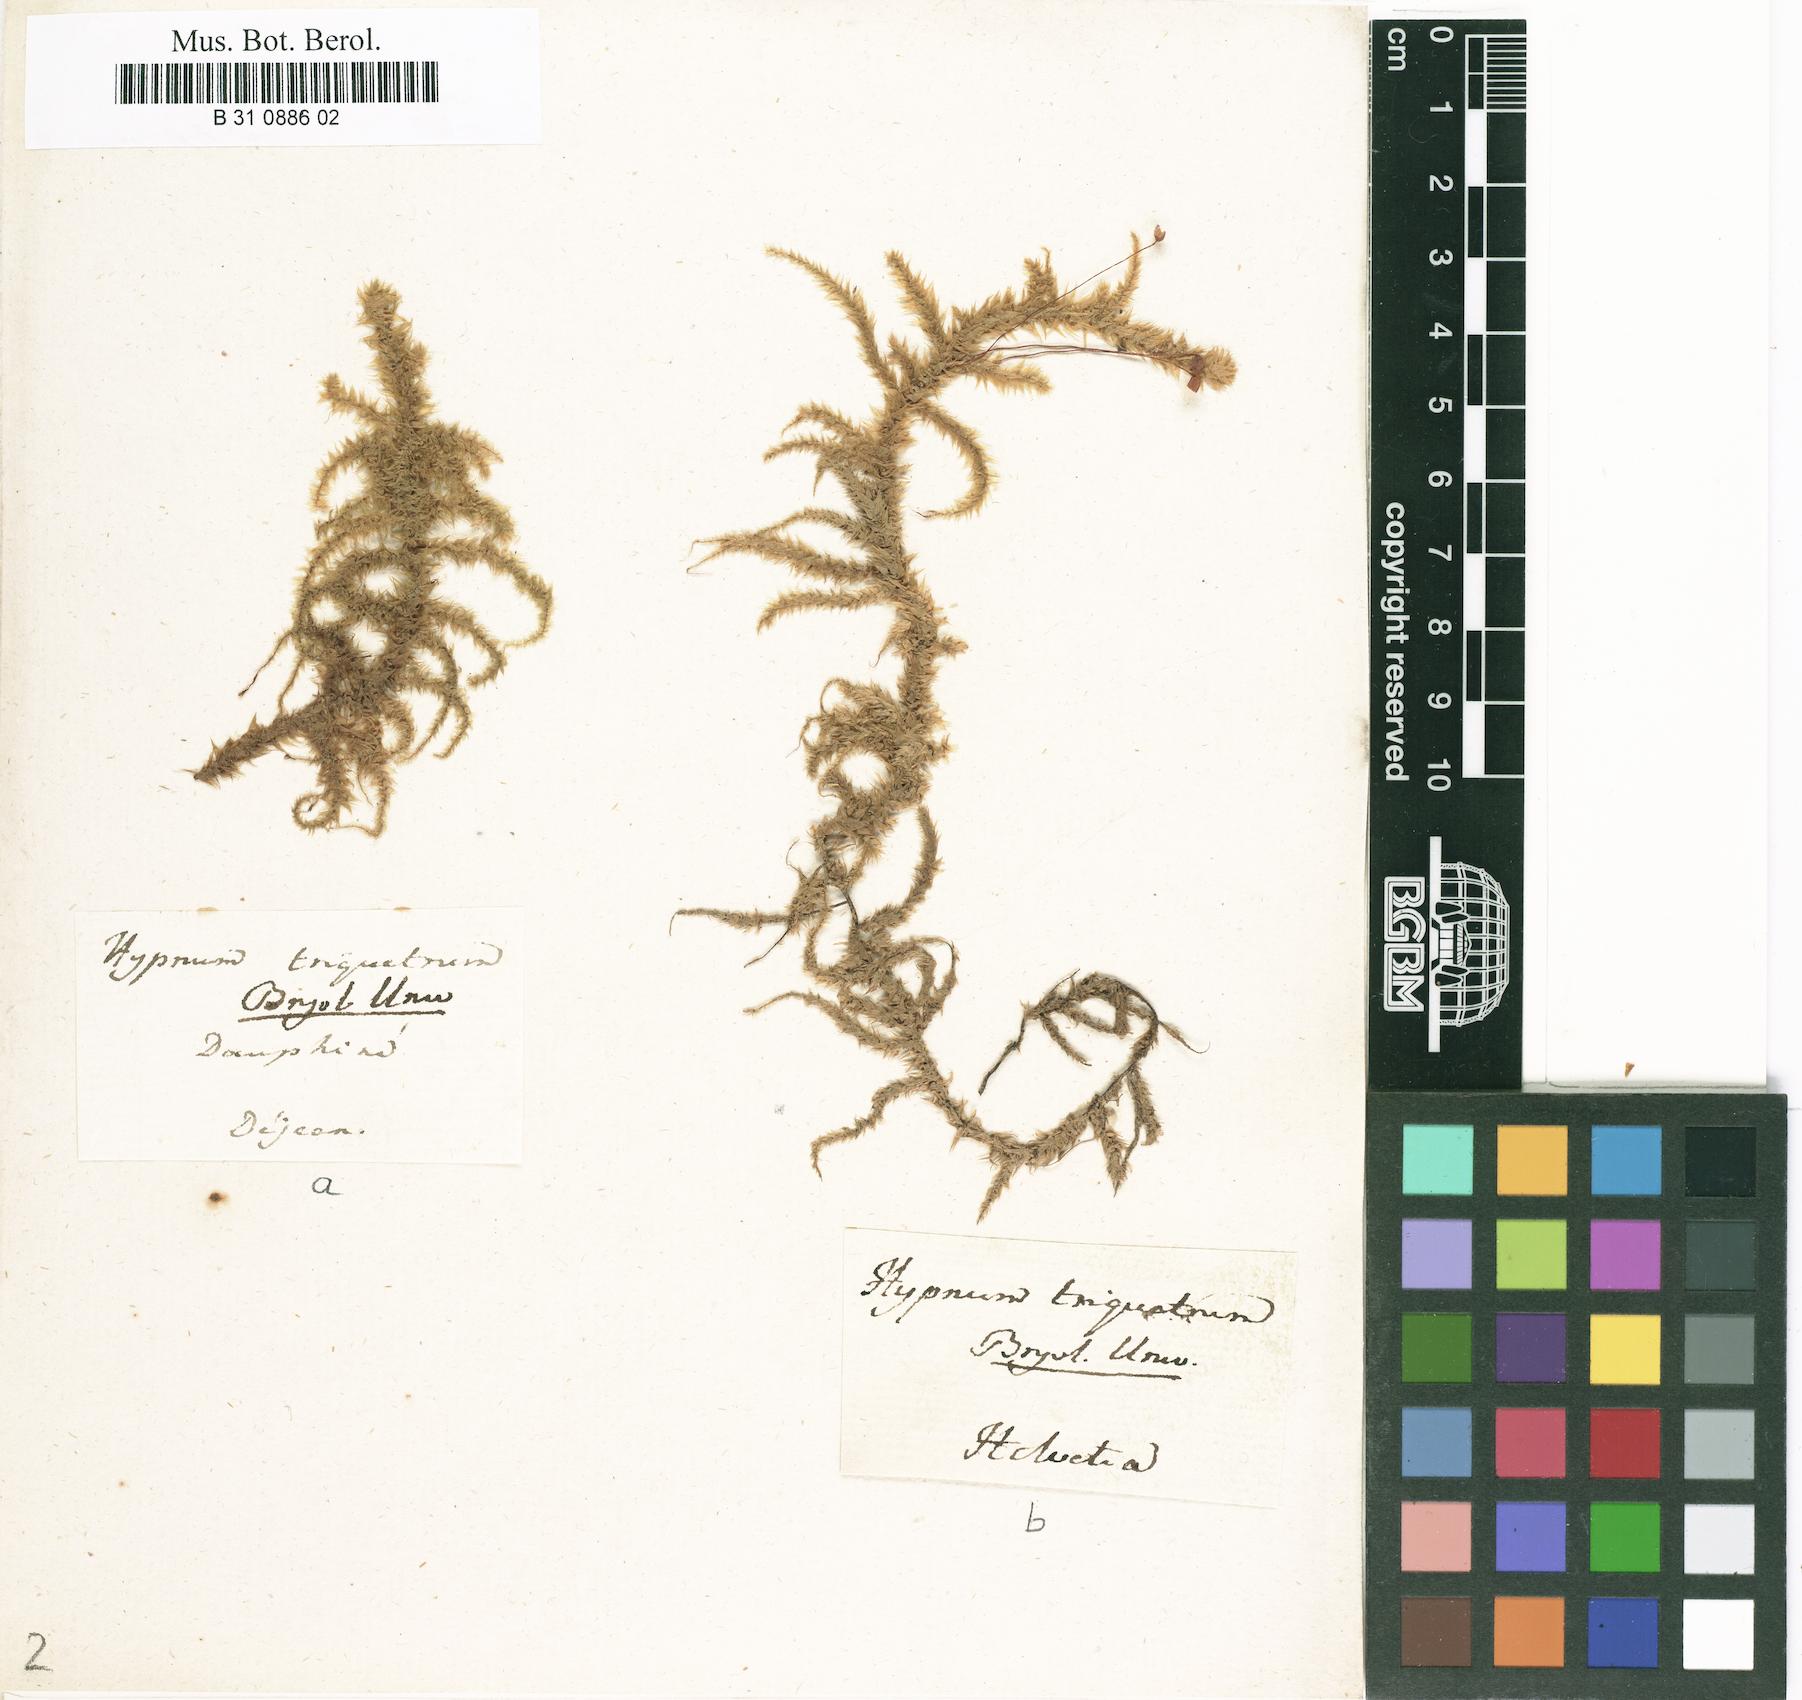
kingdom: Plantae
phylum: Bryophyta
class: Bryopsida
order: Hypnales
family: Hylocomiaceae
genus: Hylocomiadelphus
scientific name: Hylocomiadelphus triquetrus
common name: Rough goose neck moss
